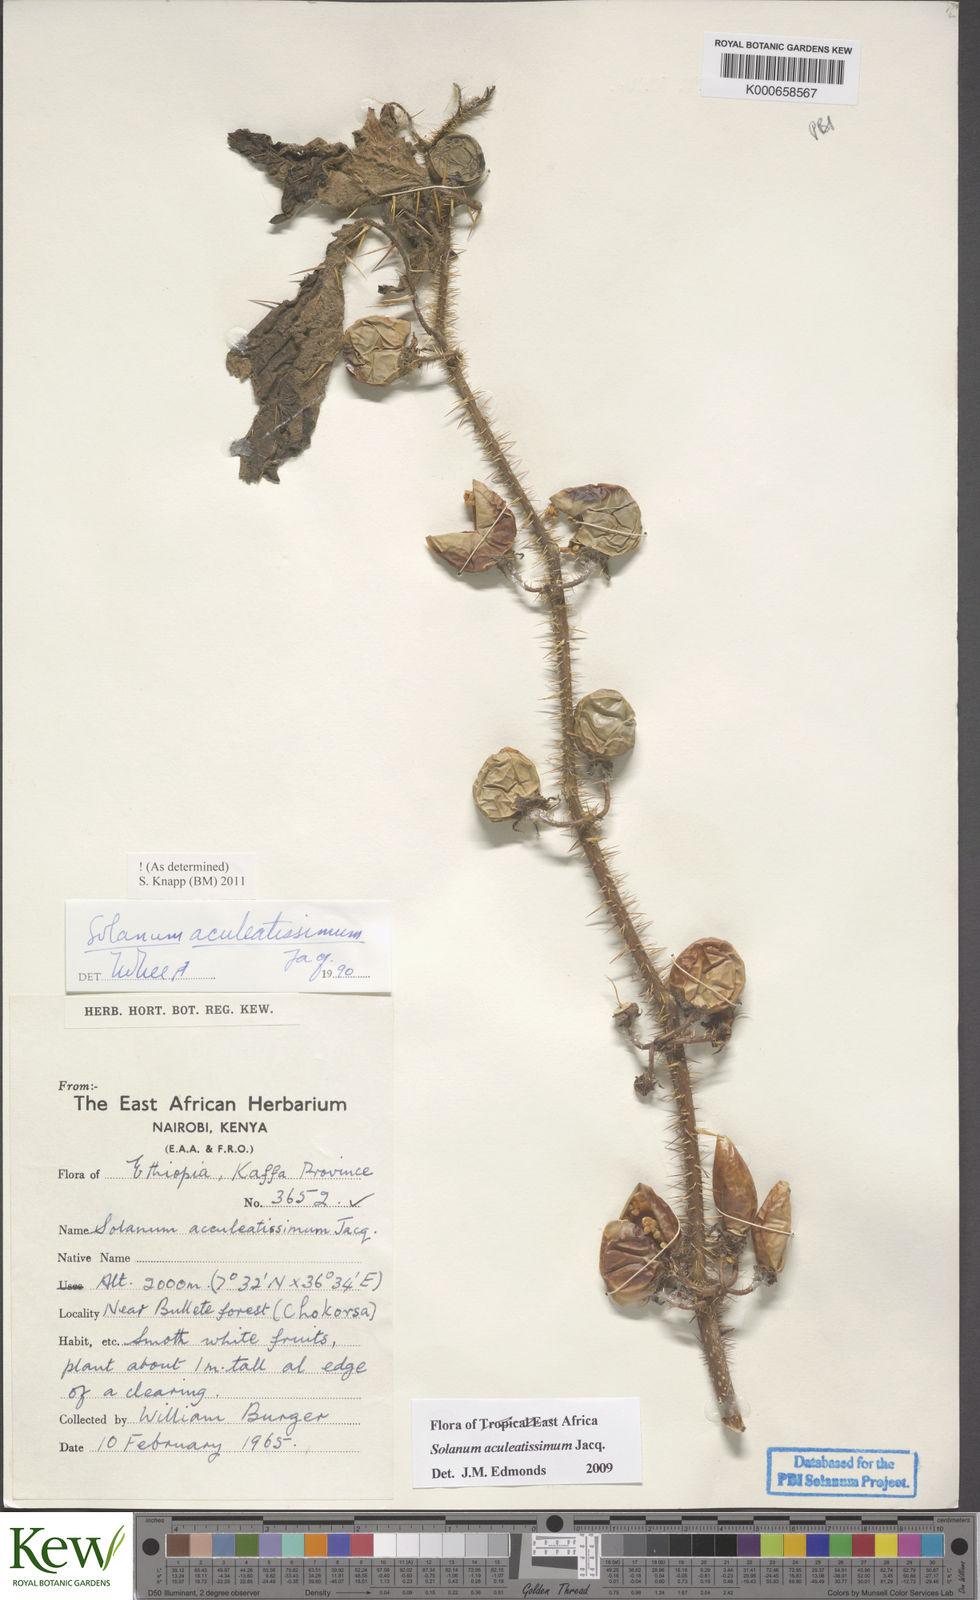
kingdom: Plantae
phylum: Tracheophyta
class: Magnoliopsida
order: Solanales
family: Solanaceae
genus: Solanum
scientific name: Solanum aculeatissimum
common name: Dutch eggplant
